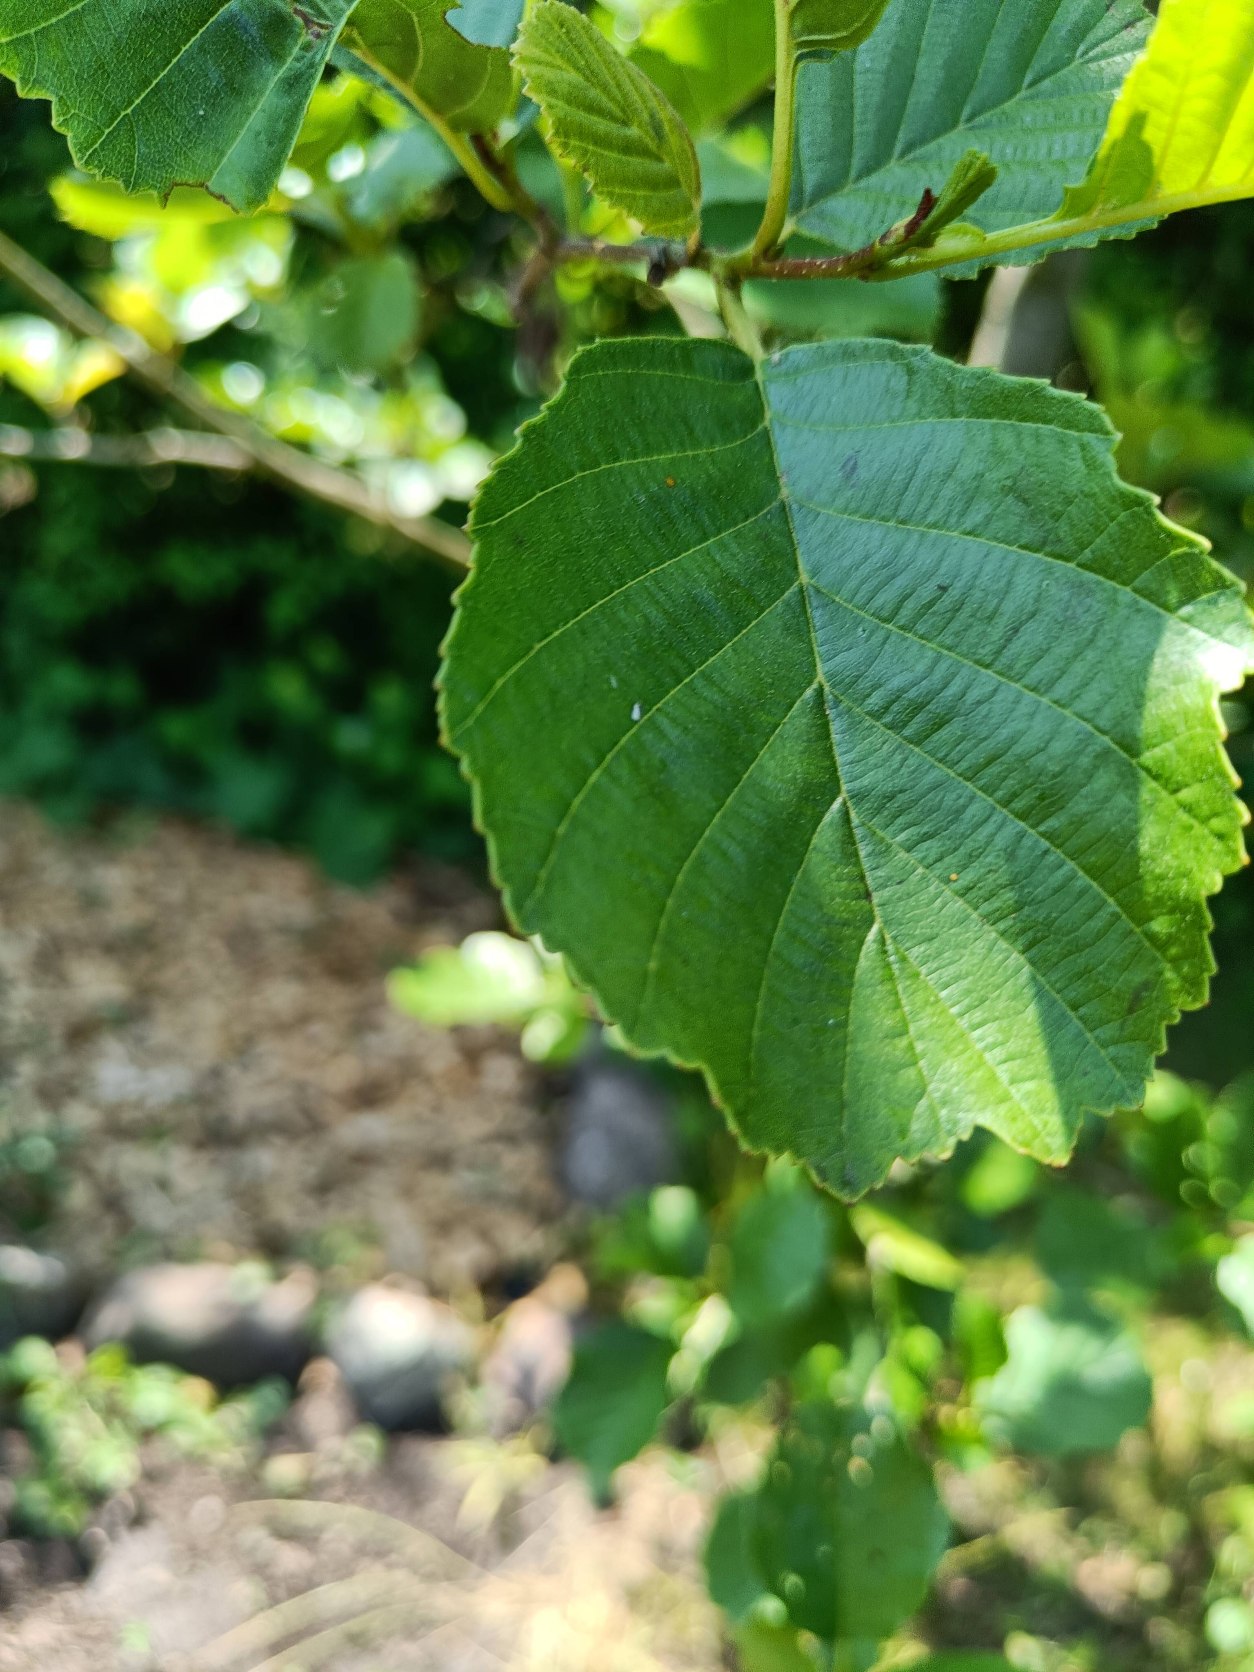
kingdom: Plantae
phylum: Tracheophyta
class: Magnoliopsida
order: Fagales
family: Betulaceae
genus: Alnus
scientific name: Alnus glutinosa
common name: Rød-el
